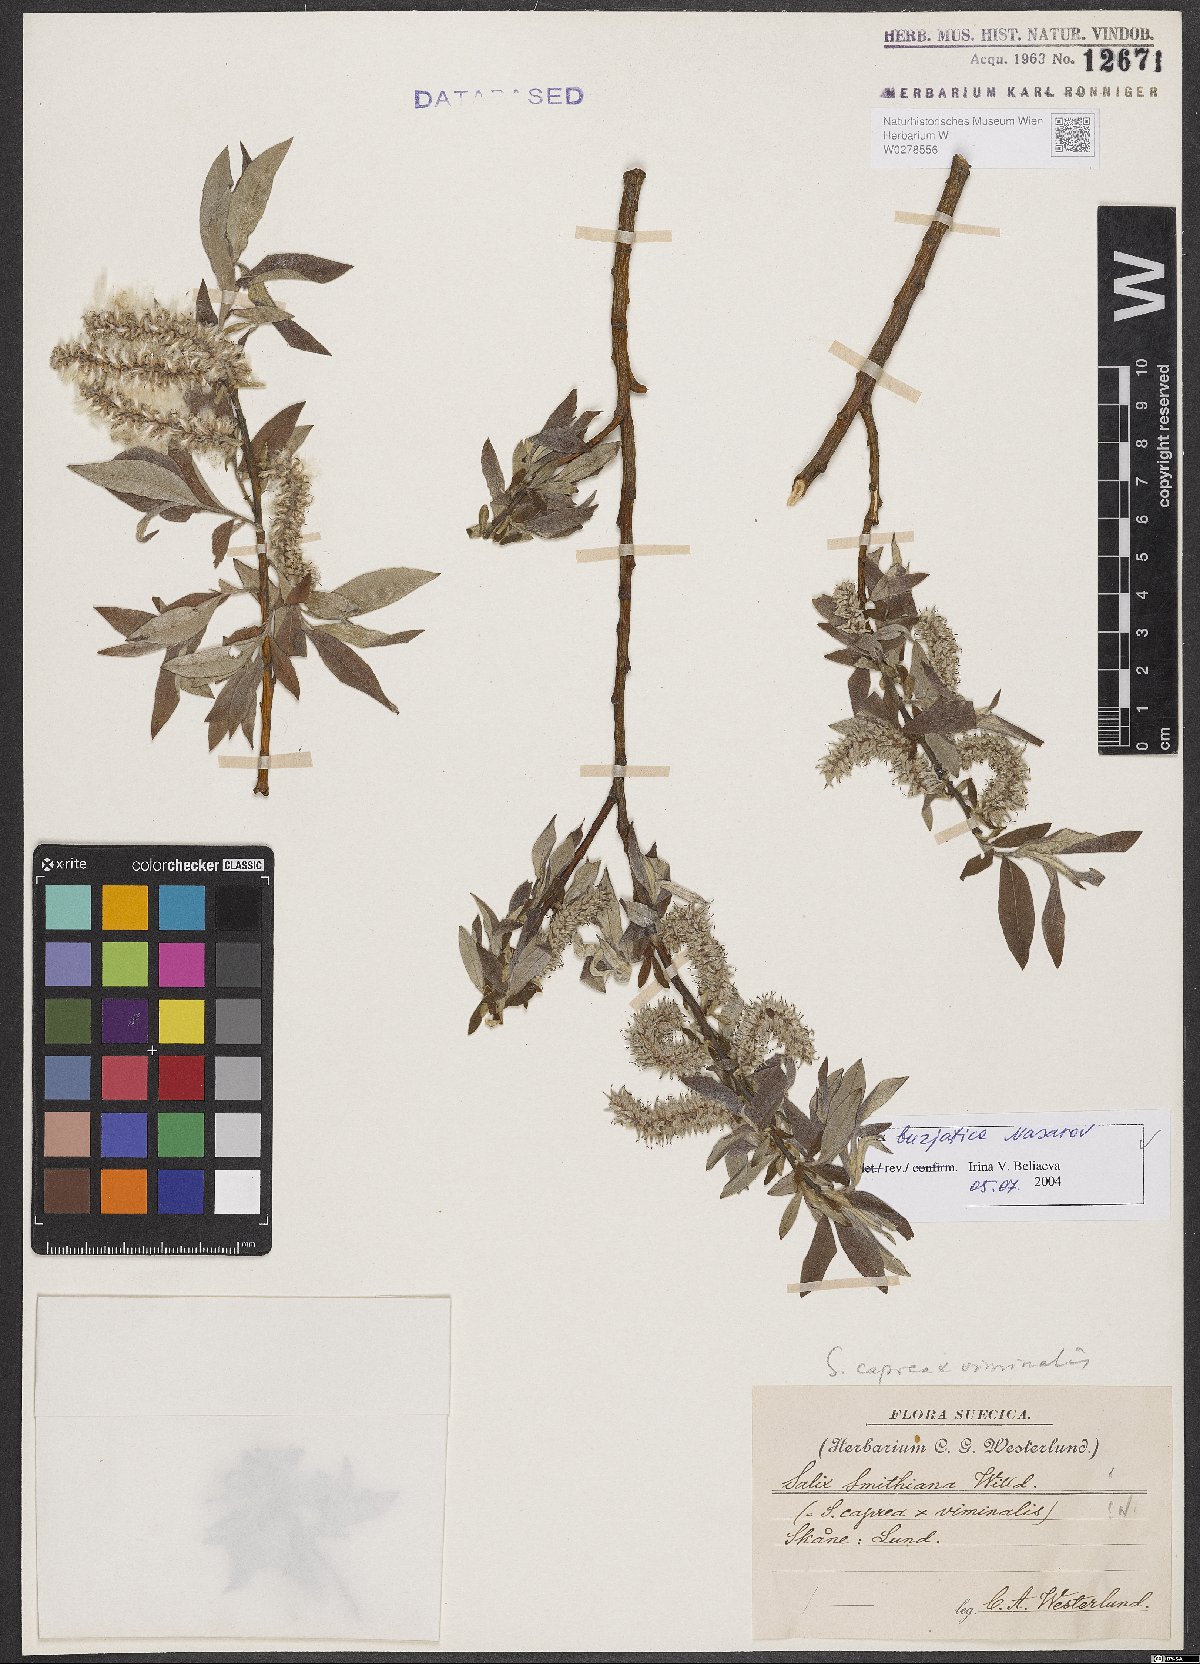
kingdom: Plantae
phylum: Tracheophyta
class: Magnoliopsida
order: Malpighiales
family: Salicaceae
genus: Salix
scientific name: Salix gmelinii
